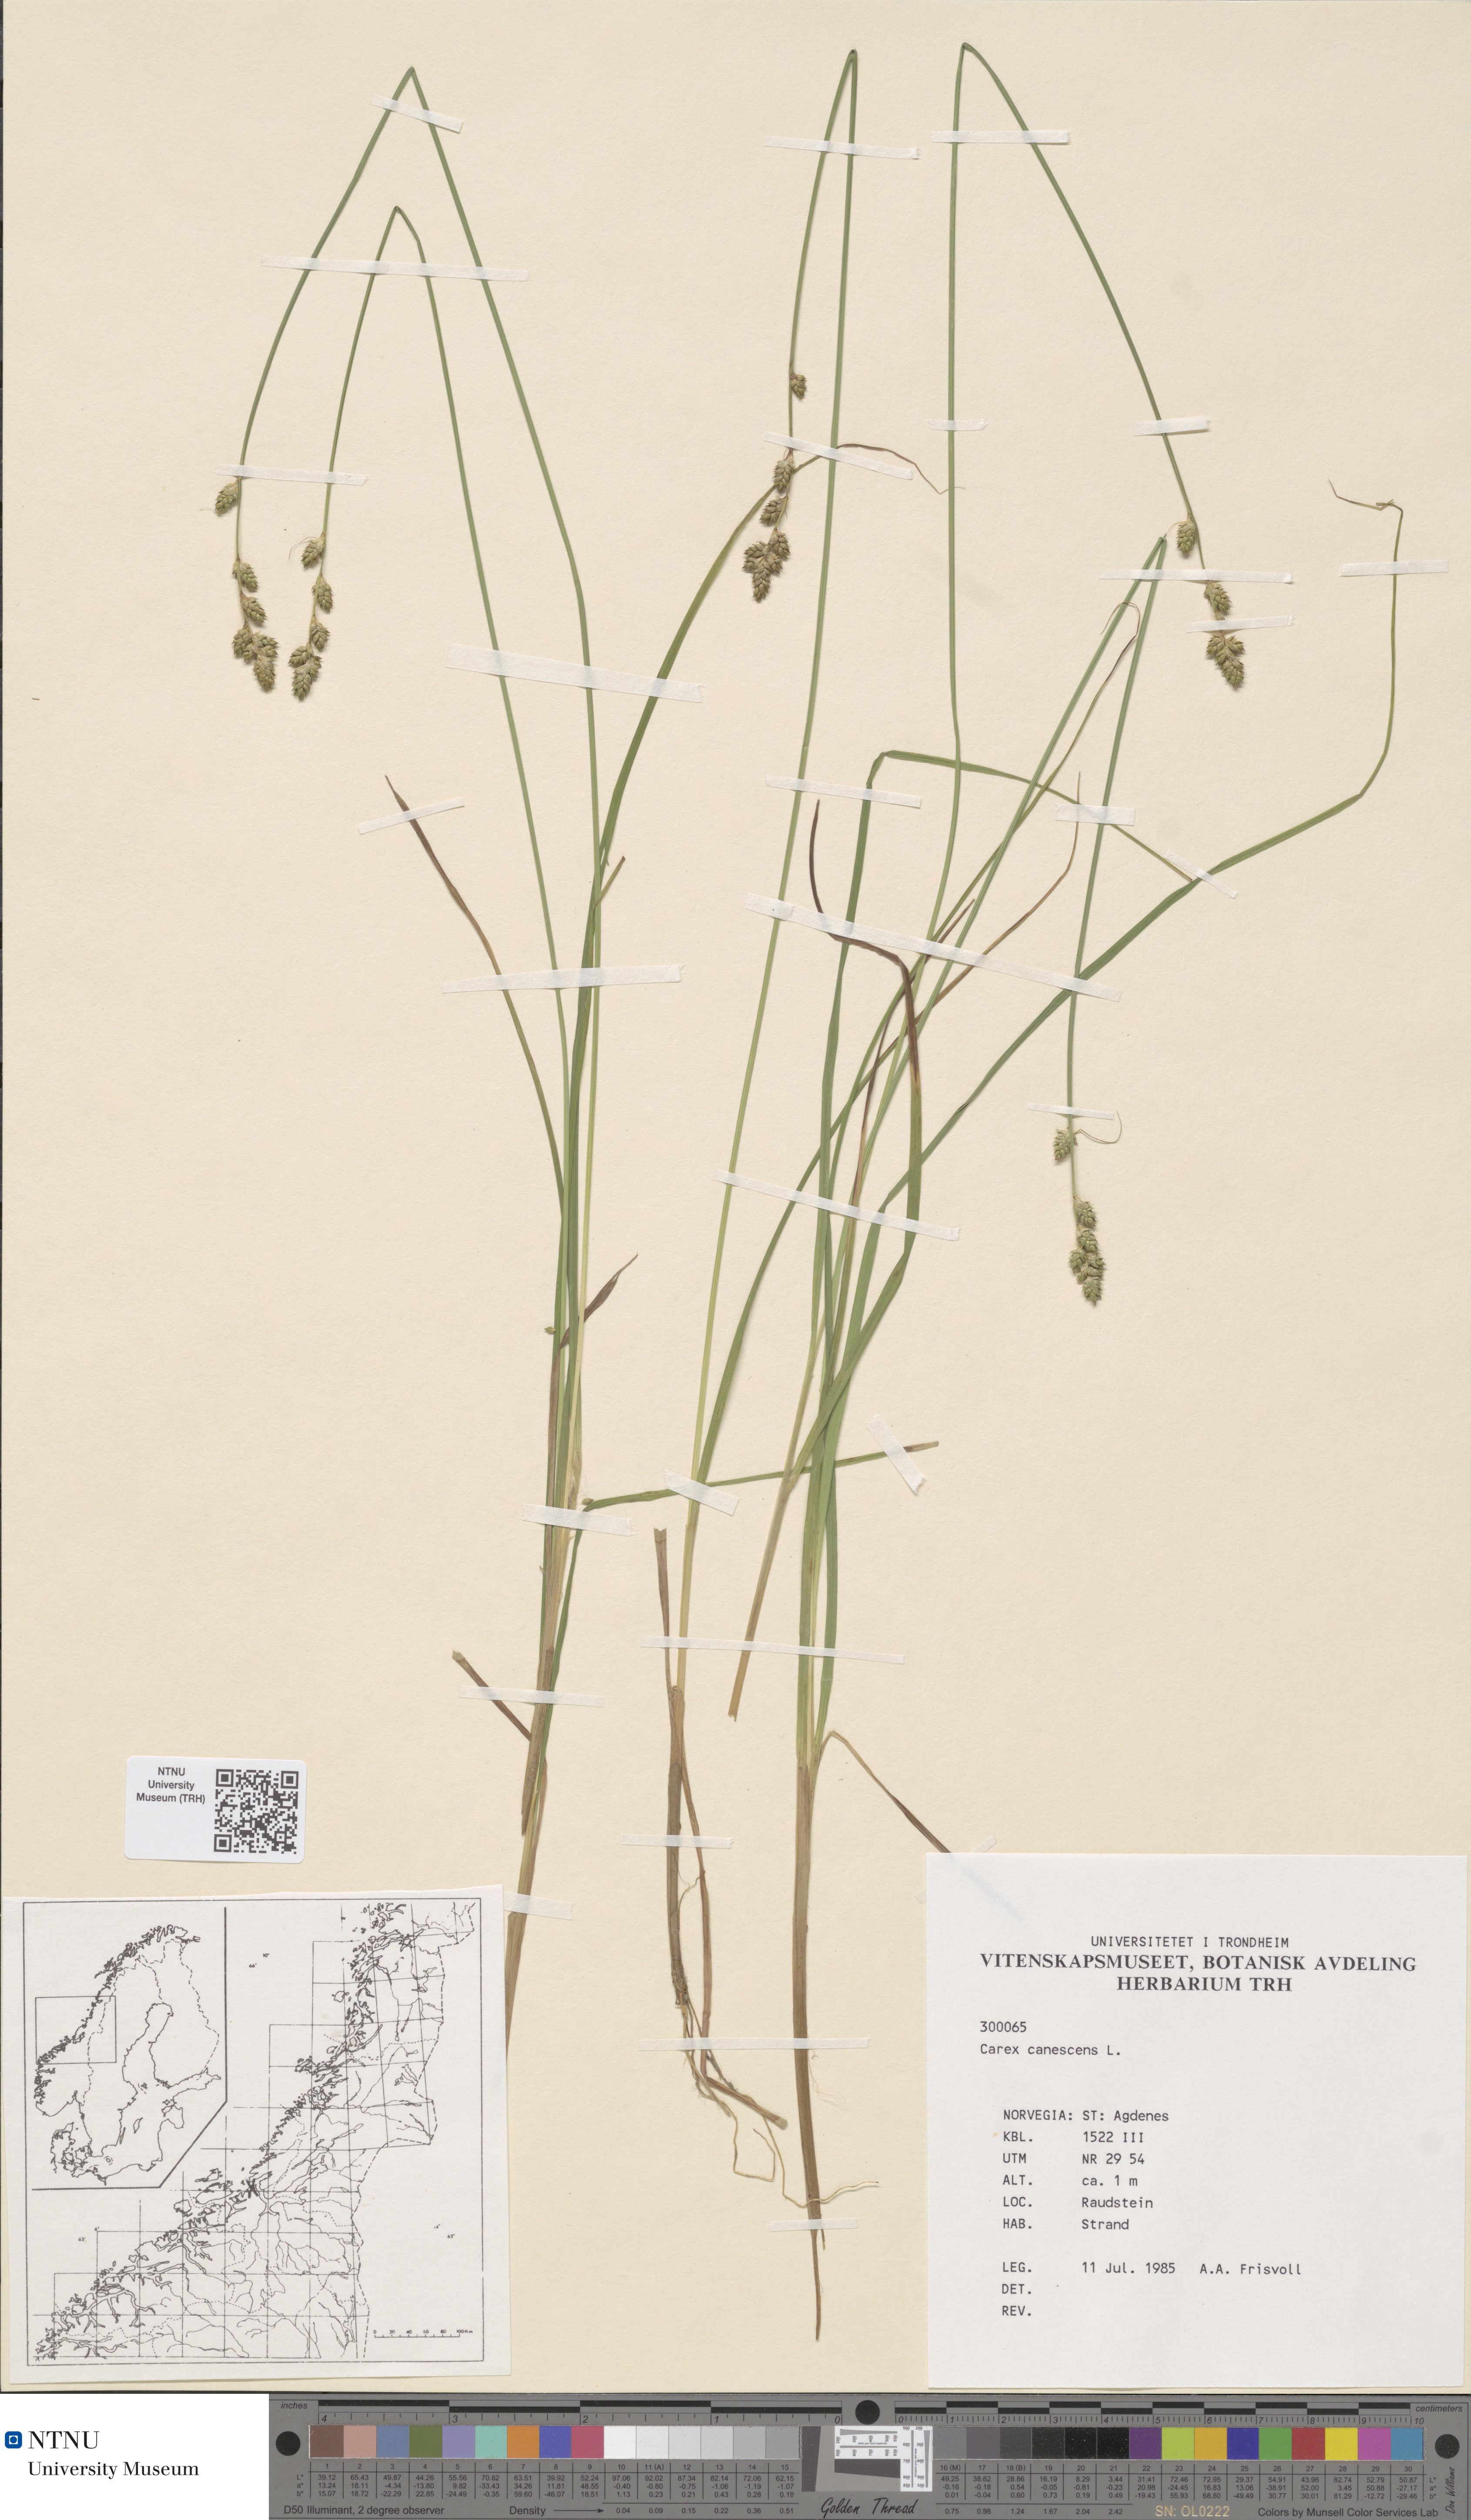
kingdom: Plantae
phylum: Tracheophyta
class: Liliopsida
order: Poales
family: Cyperaceae
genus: Carex
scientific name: Carex canescens
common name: White sedge
